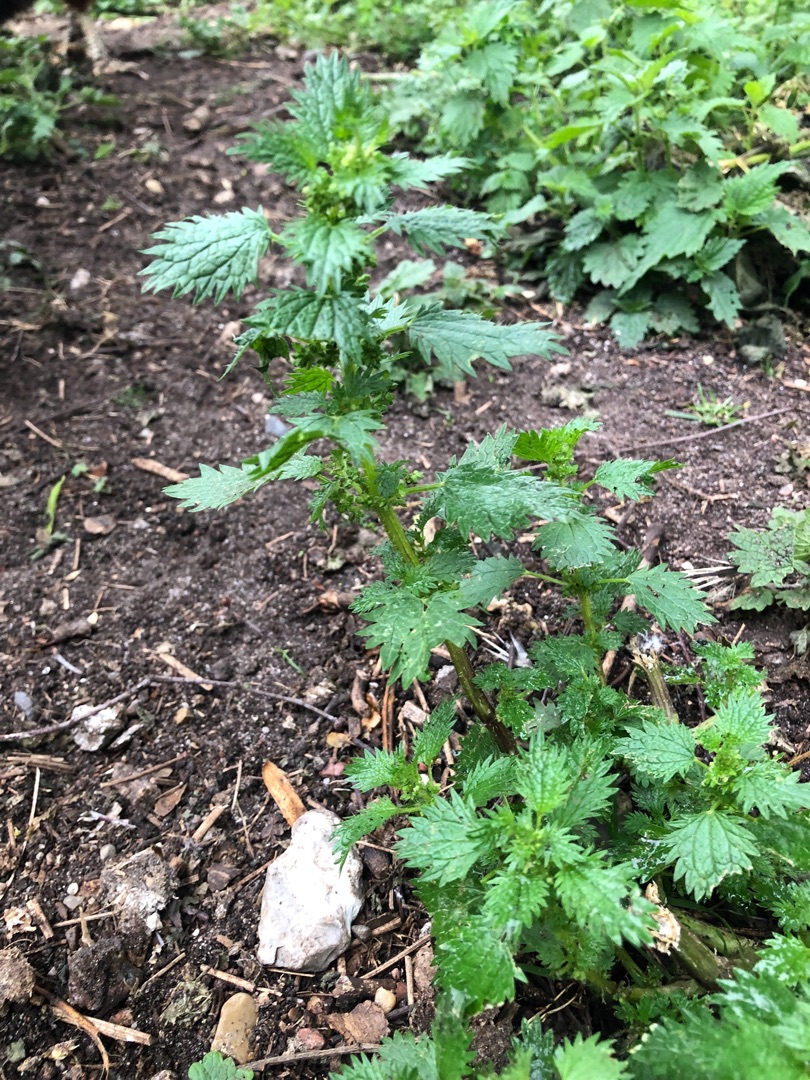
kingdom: Plantae
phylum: Tracheophyta
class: Magnoliopsida
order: Rosales
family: Urticaceae
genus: Urtica
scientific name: Urtica urens
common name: Liden nælde
